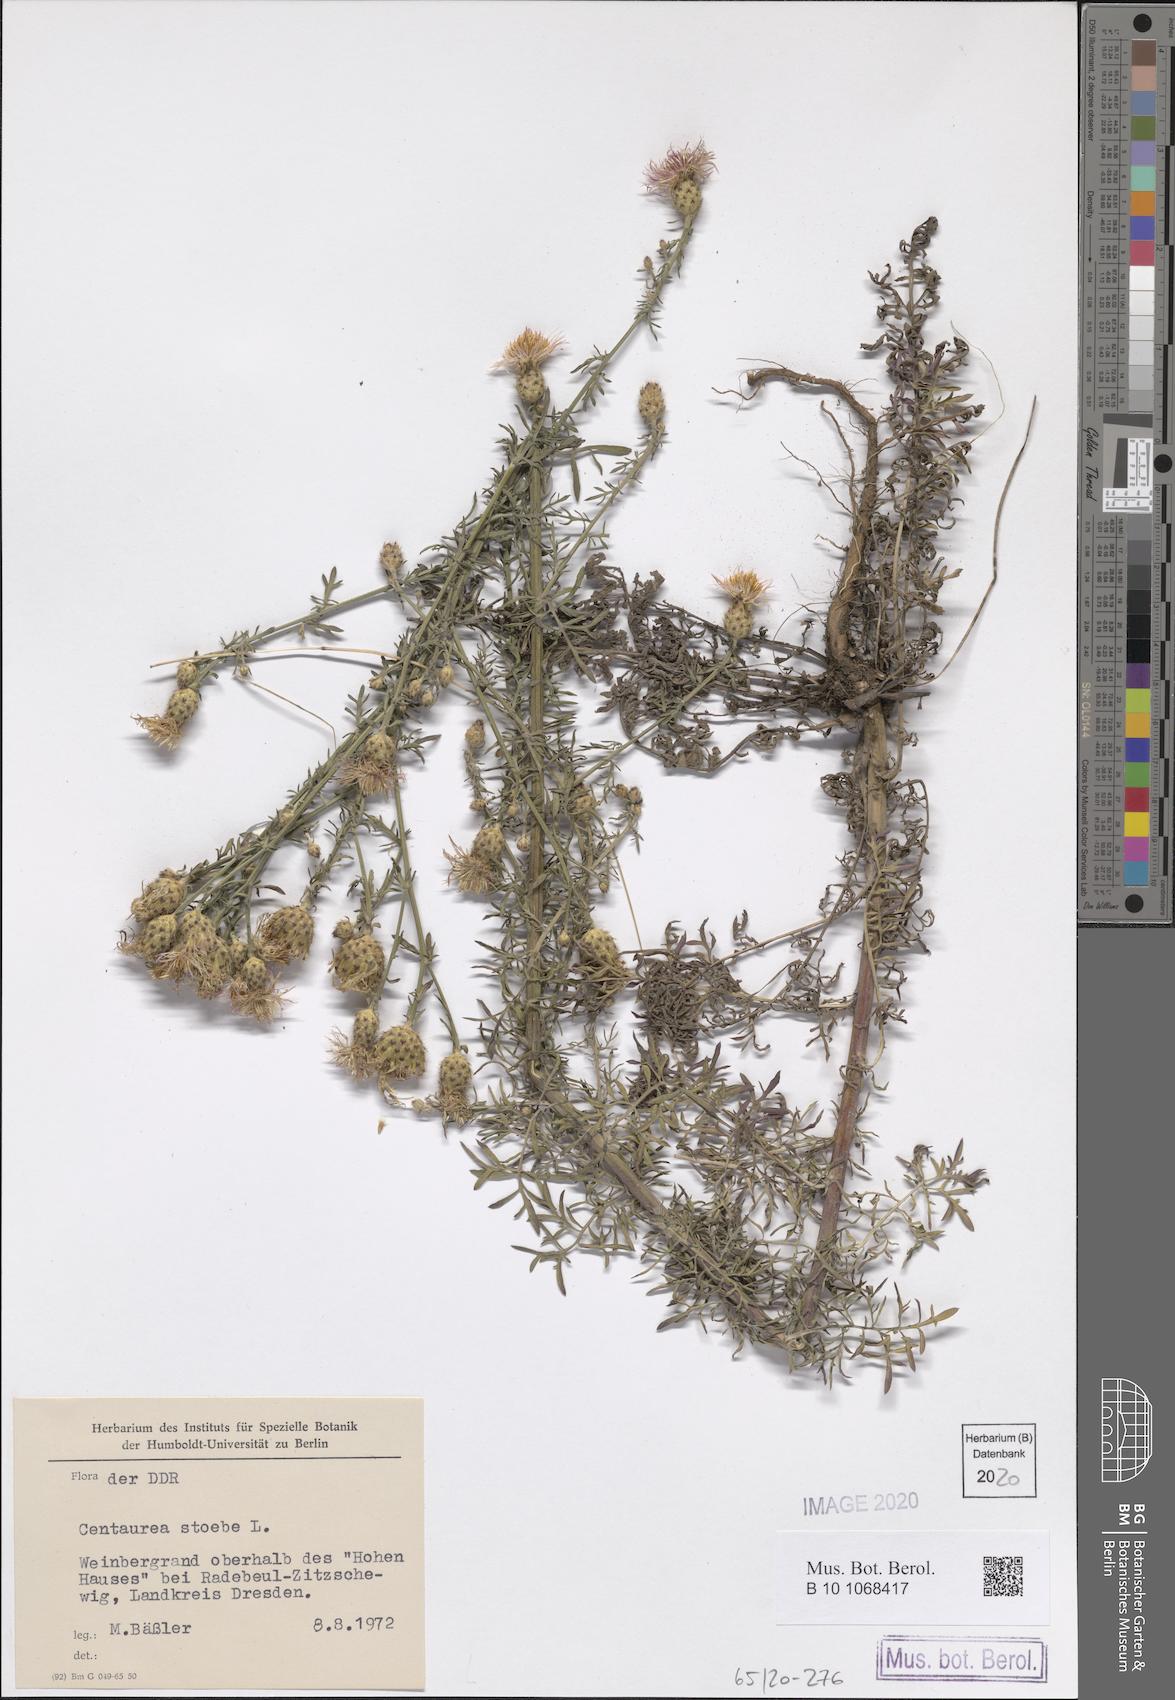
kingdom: Plantae
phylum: Tracheophyta
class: Magnoliopsida
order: Asterales
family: Asteraceae
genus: Centaurea
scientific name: Centaurea stoebe
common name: Spotted knapweed
